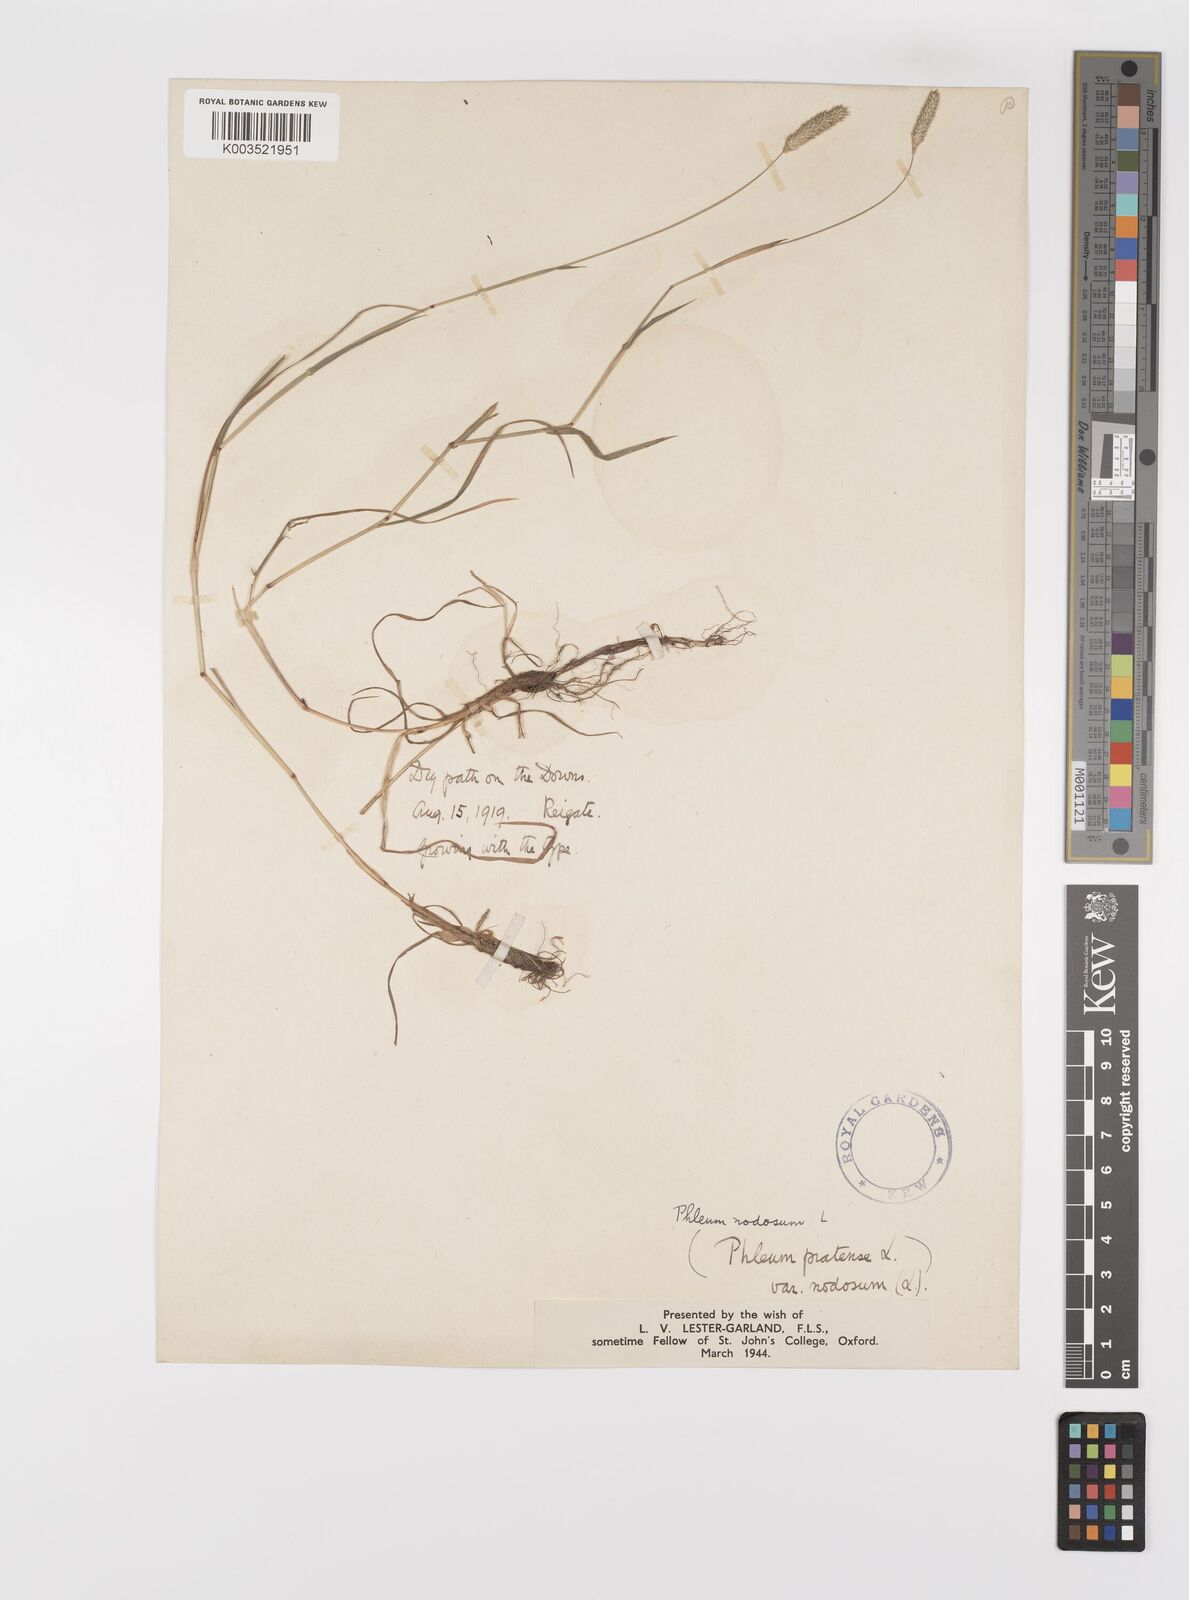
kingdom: Plantae
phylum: Tracheophyta
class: Liliopsida
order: Poales
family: Poaceae
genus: Phleum
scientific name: Phleum bertolonii
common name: Smaller cat's-tail
